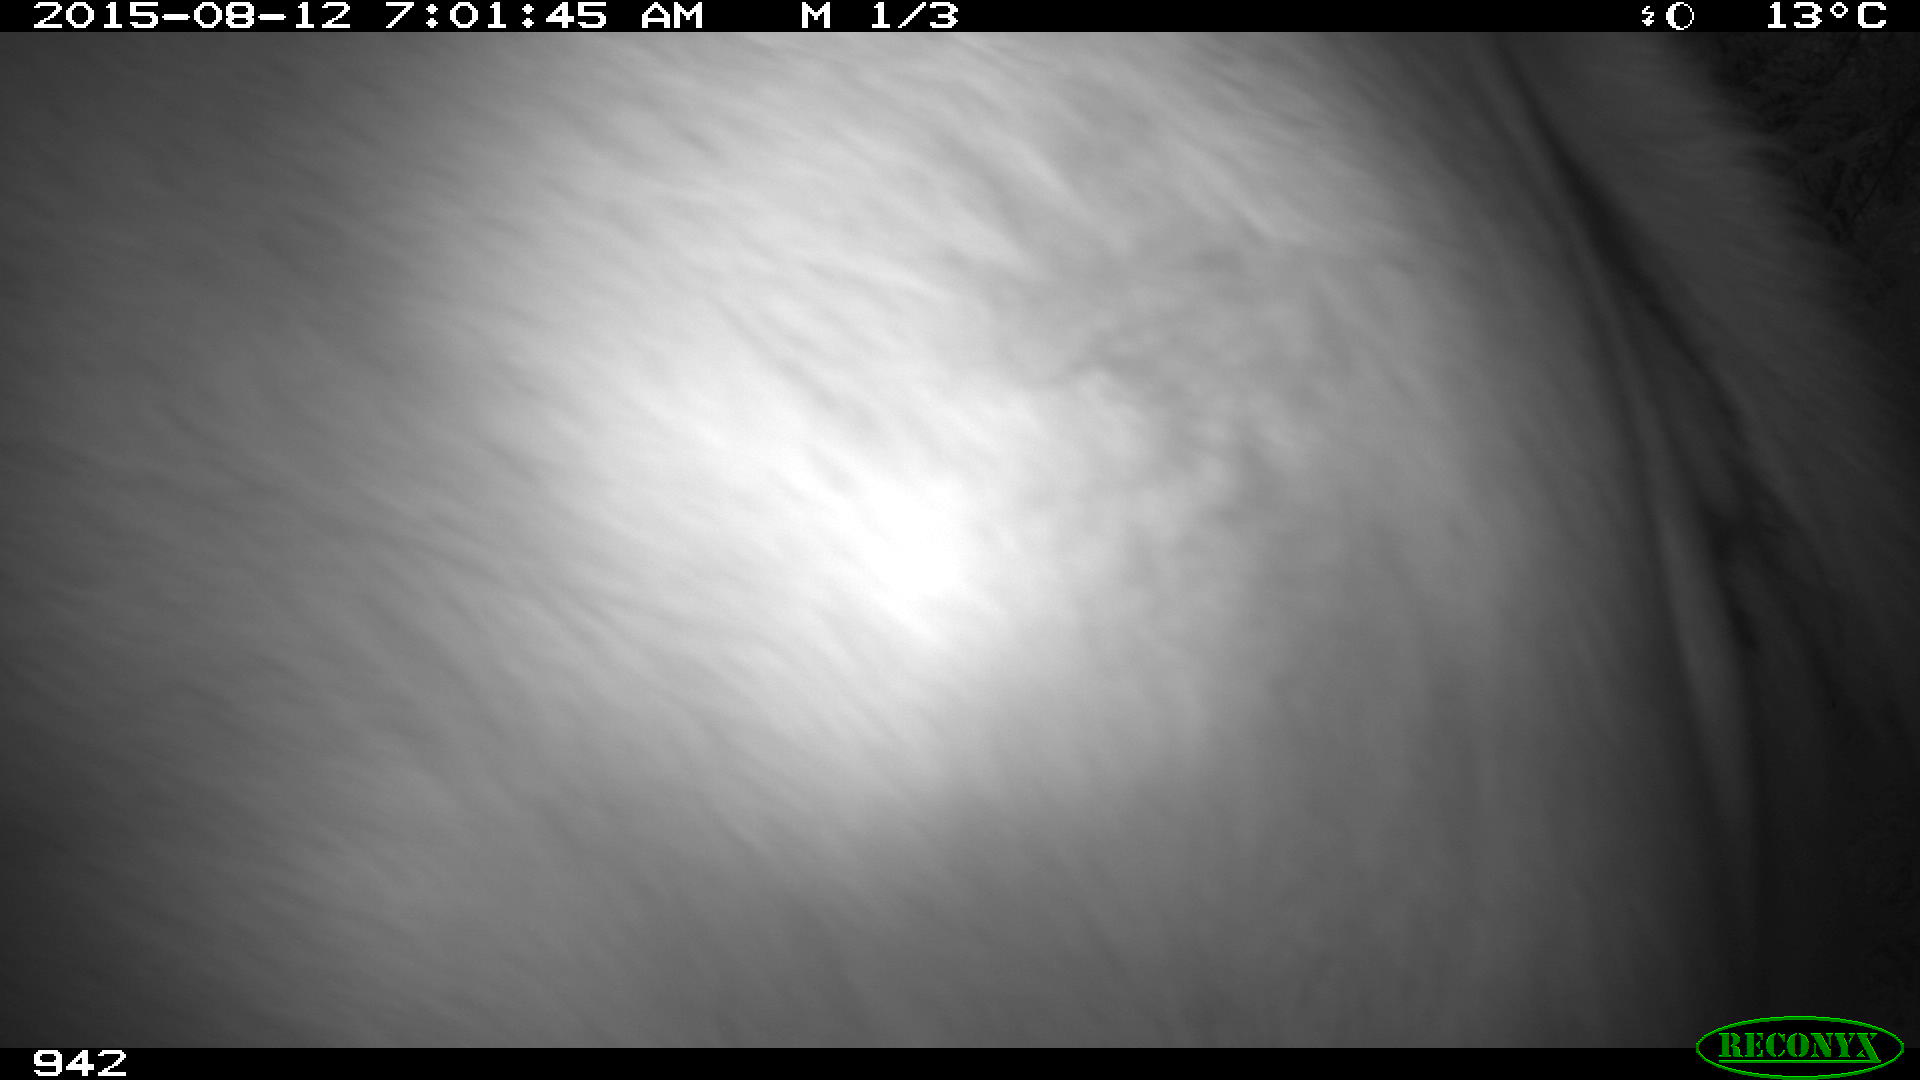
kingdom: Animalia
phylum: Chordata
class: Mammalia
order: Artiodactyla
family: Bovidae
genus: Bos
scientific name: Bos taurus
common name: Domesticated cattle
